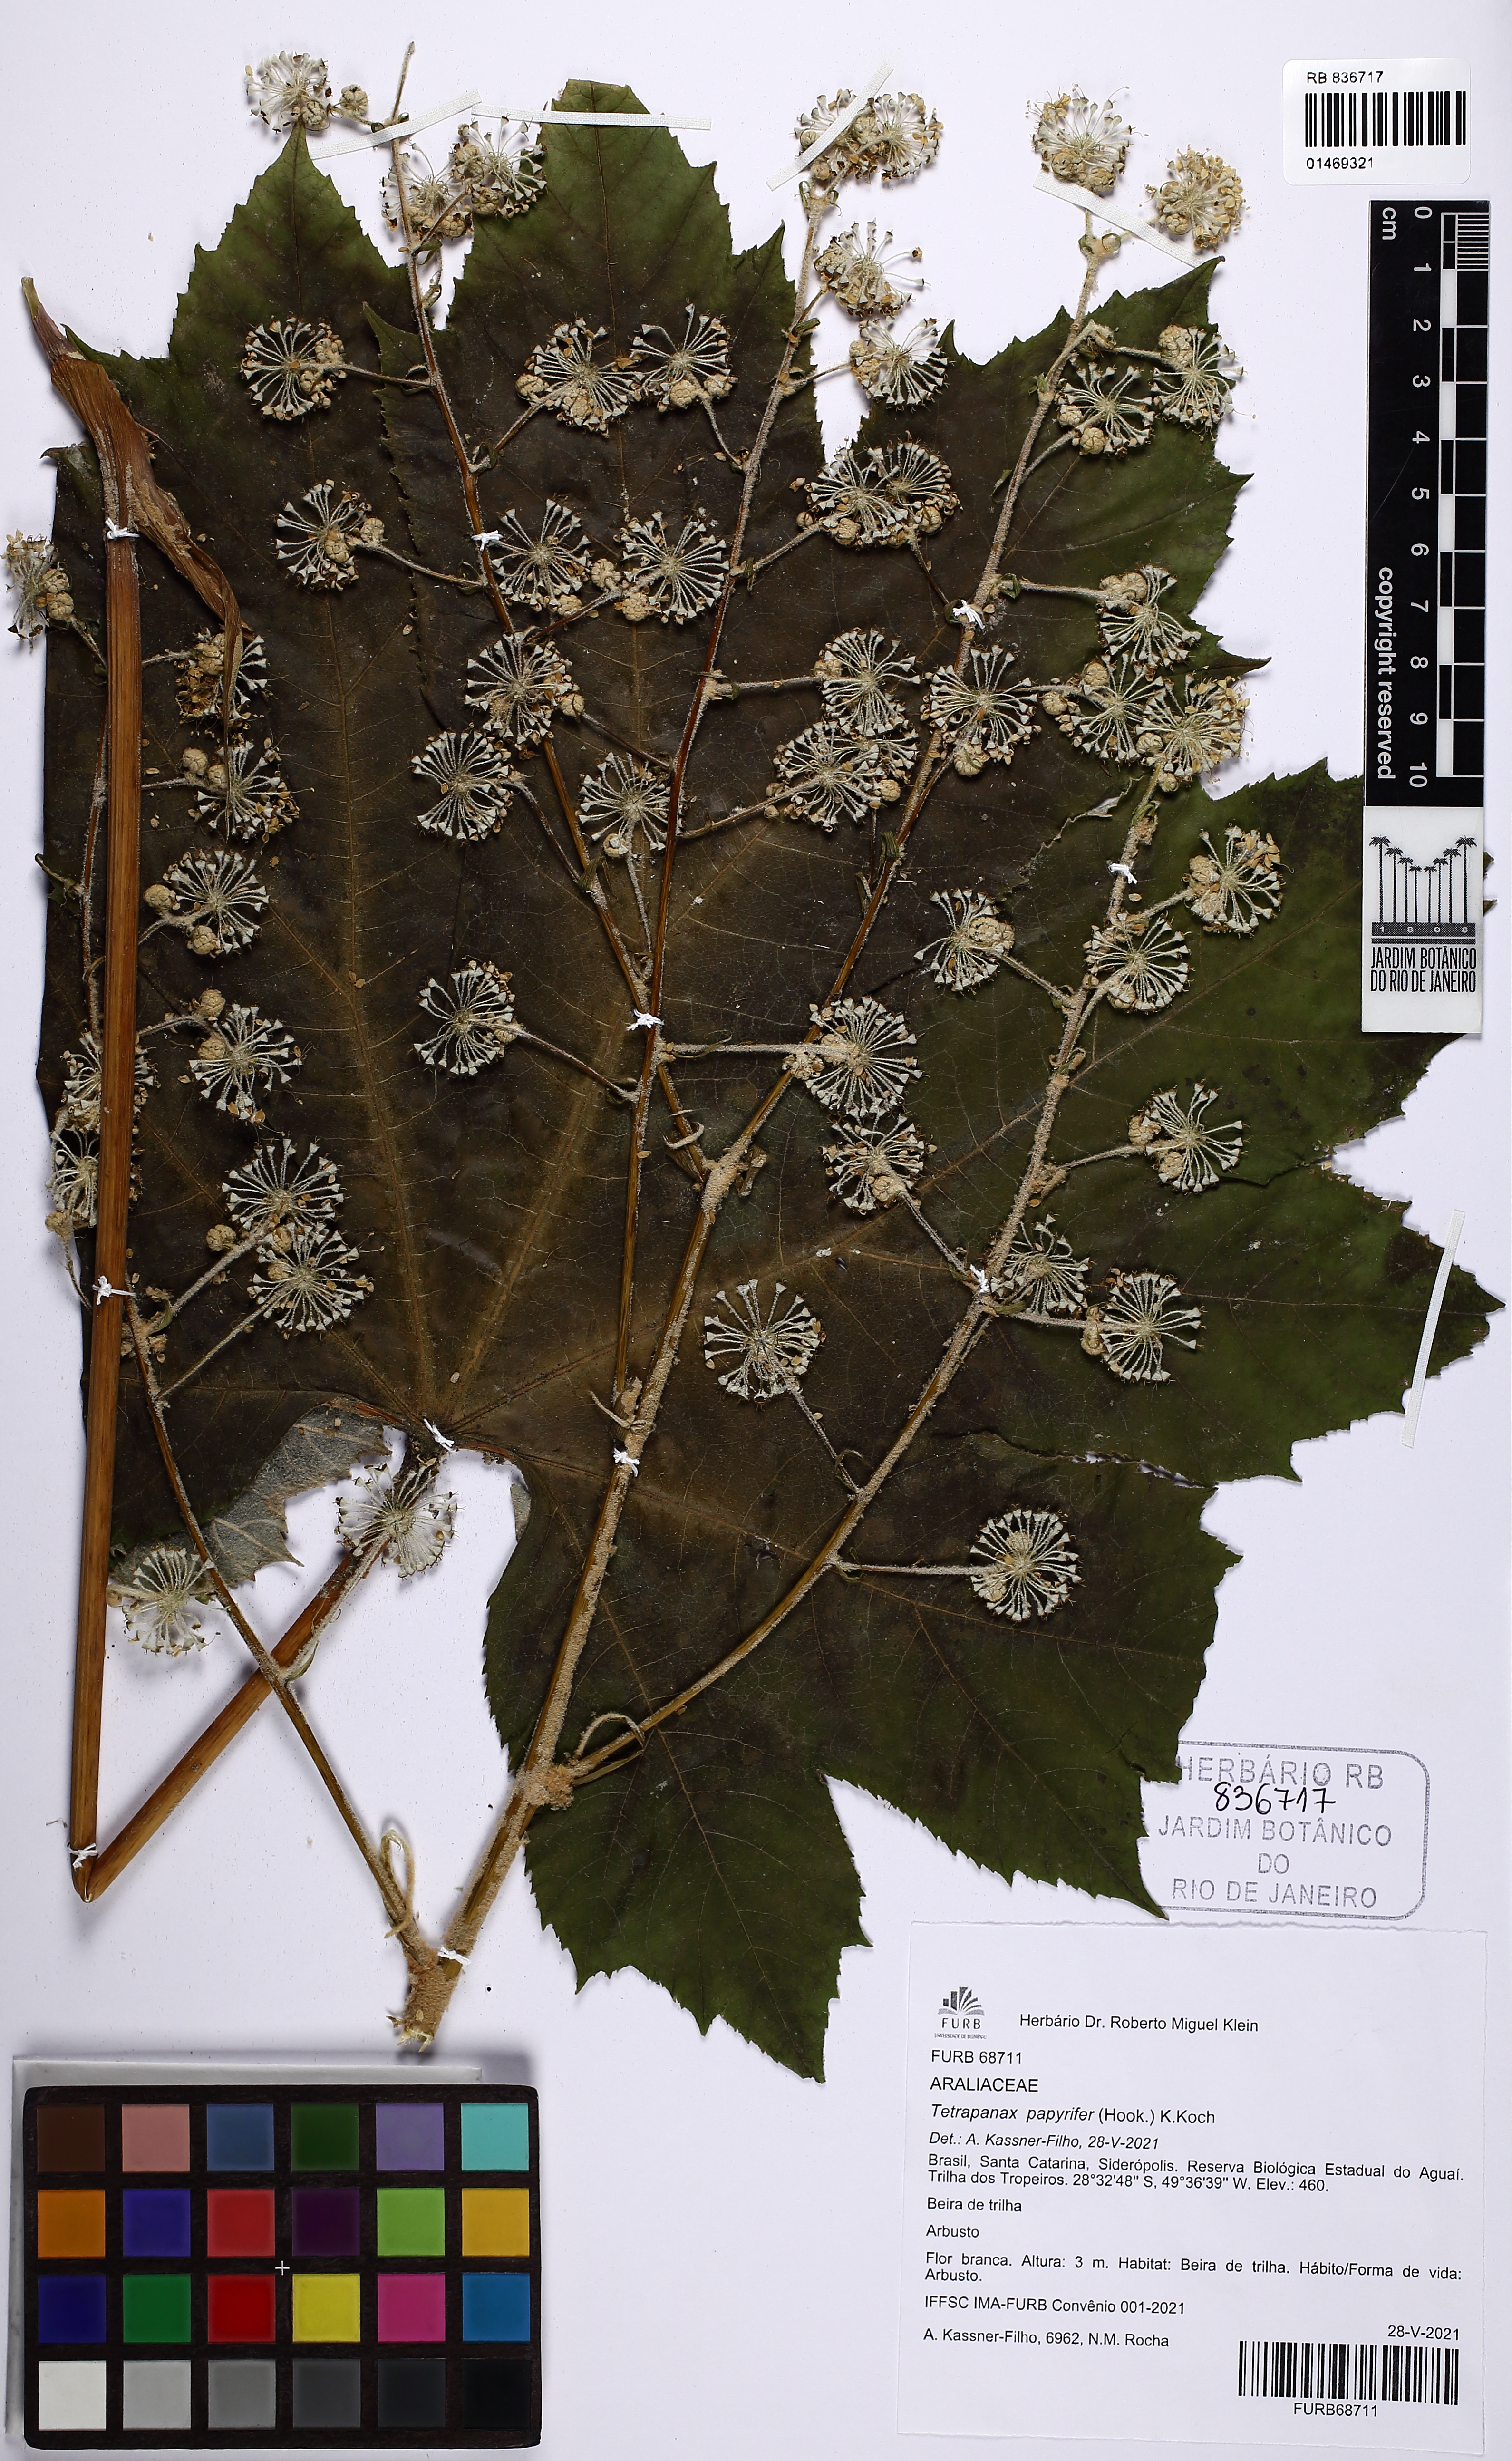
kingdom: Plantae
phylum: Tracheophyta
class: Magnoliopsida
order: Apiales
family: Araliaceae
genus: Tetrapanax
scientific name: Tetrapanax papyrifer
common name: Rice-paper plant
